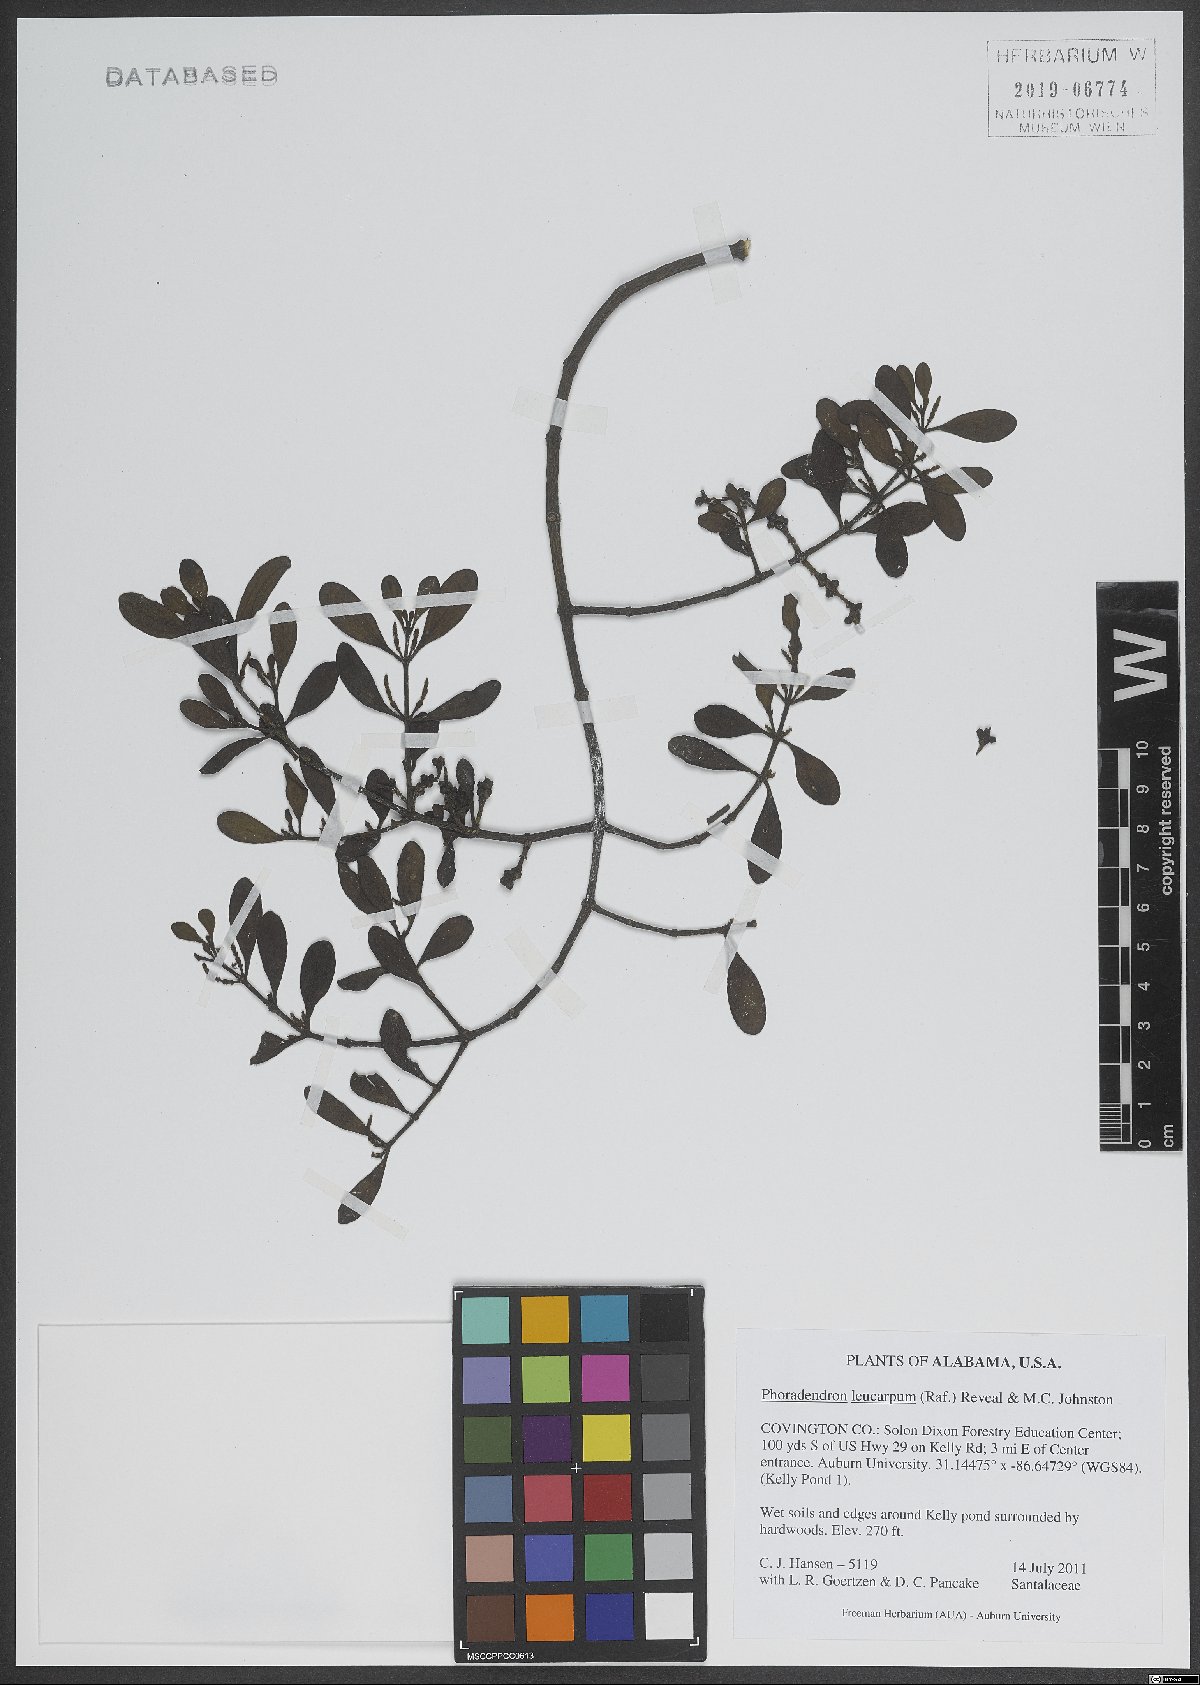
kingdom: Plantae
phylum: Tracheophyta
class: Magnoliopsida
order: Santalales
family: Viscaceae
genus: Phoradendron
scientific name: Phoradendron leucarpum
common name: Pacific mistletoe
